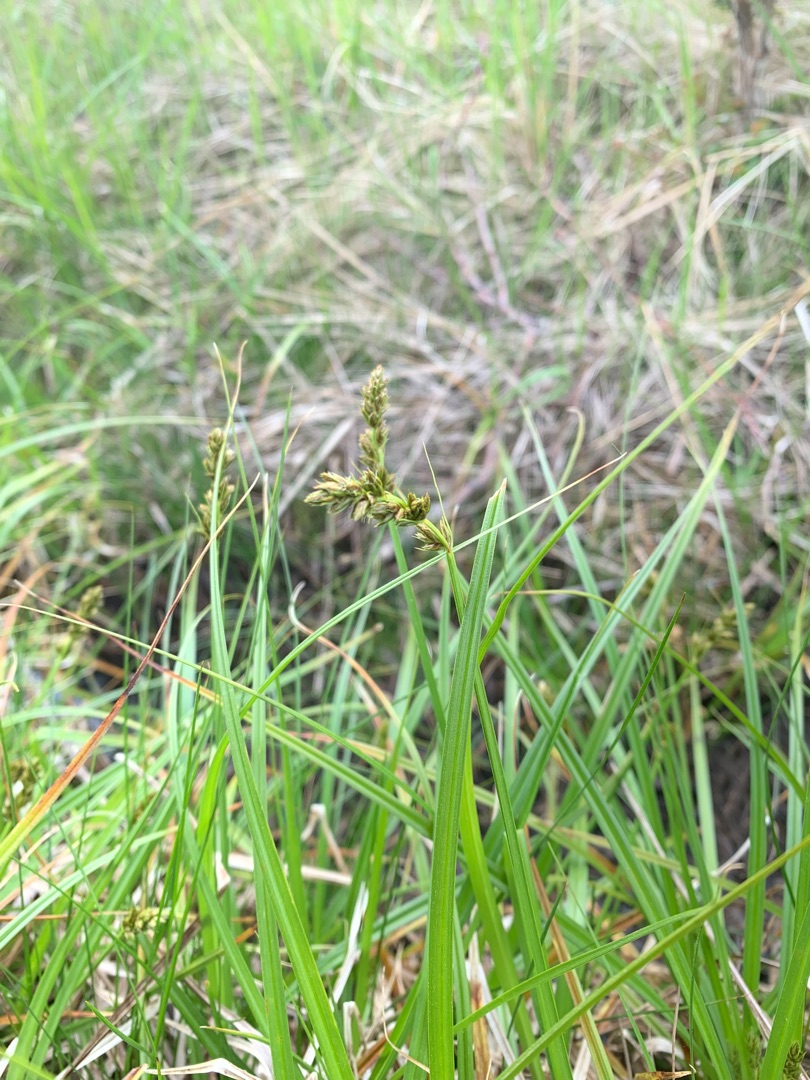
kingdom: Plantae
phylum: Tracheophyta
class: Liliopsida
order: Poales
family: Cyperaceae
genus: Carex
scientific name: Carex otrubae
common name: Sylt-star
